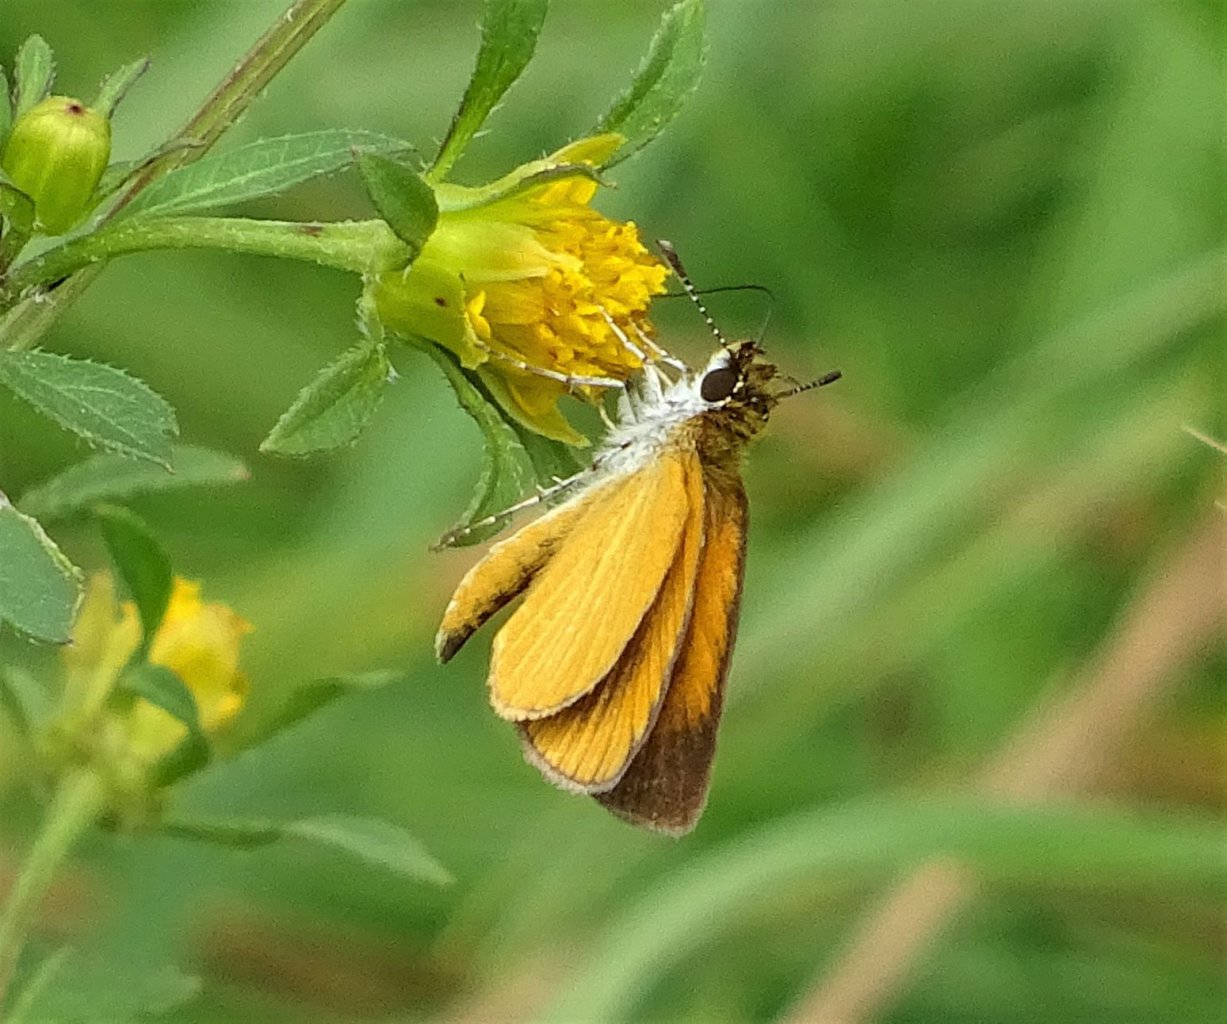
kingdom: Animalia
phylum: Arthropoda
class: Insecta
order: Lepidoptera
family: Hesperiidae
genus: Ancyloxypha
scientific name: Ancyloxypha numitor
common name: Least Skipper
